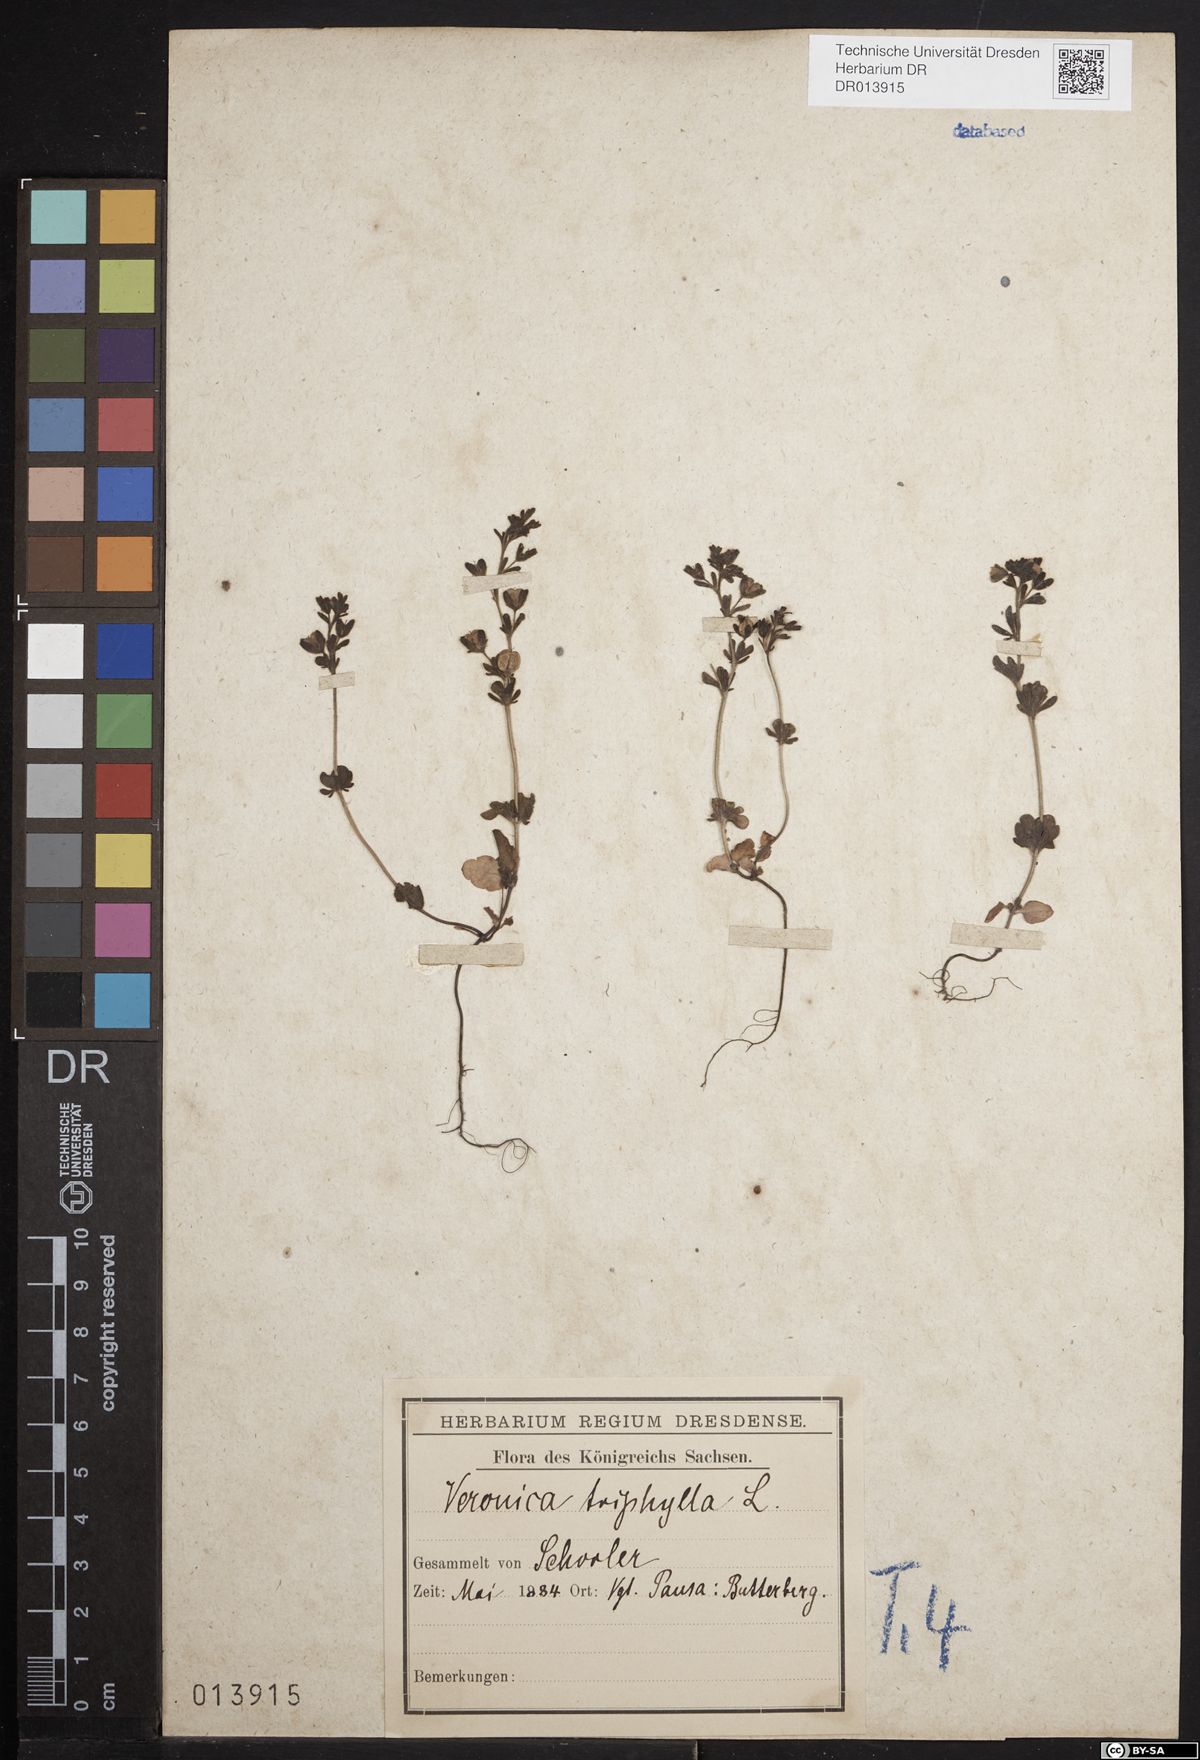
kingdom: Plantae
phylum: Tracheophyta
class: Magnoliopsida
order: Lamiales
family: Plantaginaceae
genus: Veronica
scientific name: Veronica triphyllos
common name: Fingered speedwell
